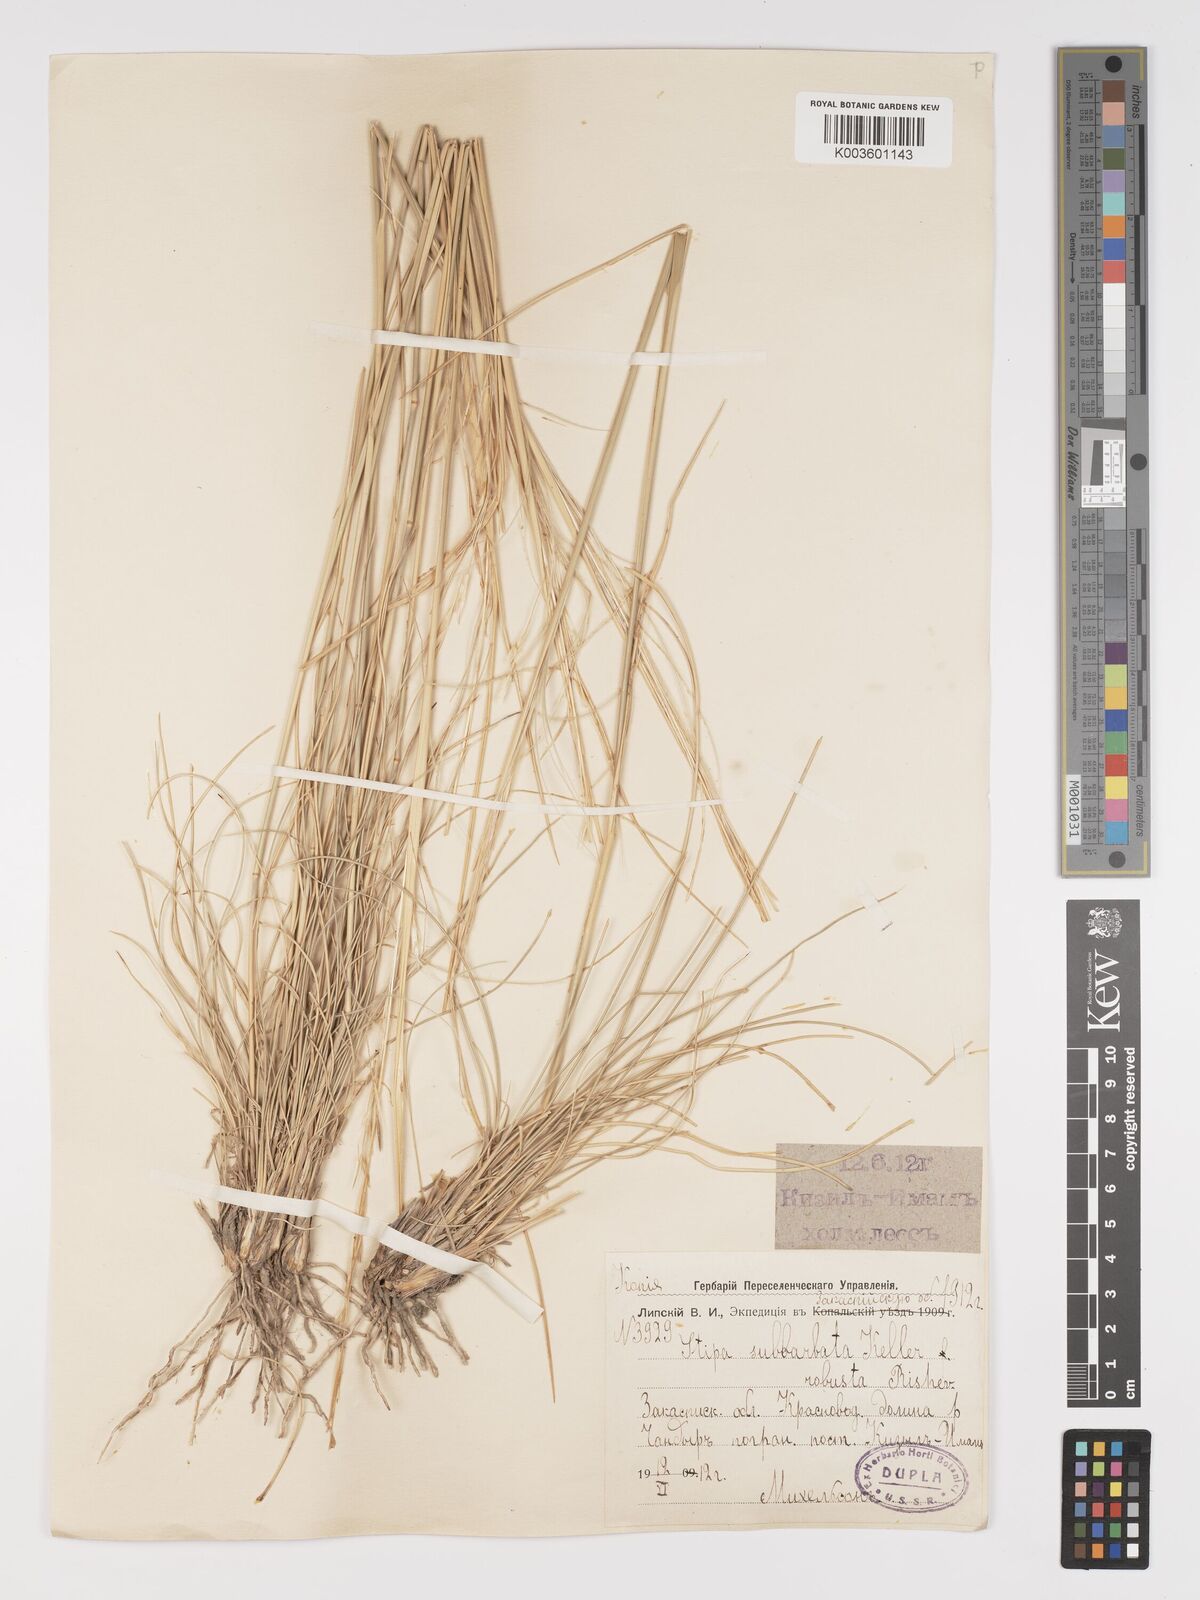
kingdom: Plantae
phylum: Tracheophyta
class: Liliopsida
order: Poales
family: Poaceae
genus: Stipa
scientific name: Stipa hohenackeriana
